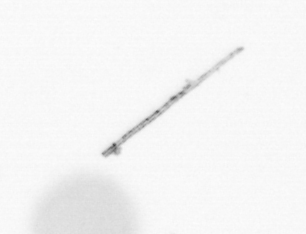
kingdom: Chromista
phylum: Ochrophyta
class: Bacillariophyceae
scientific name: Bacillariophyceae
